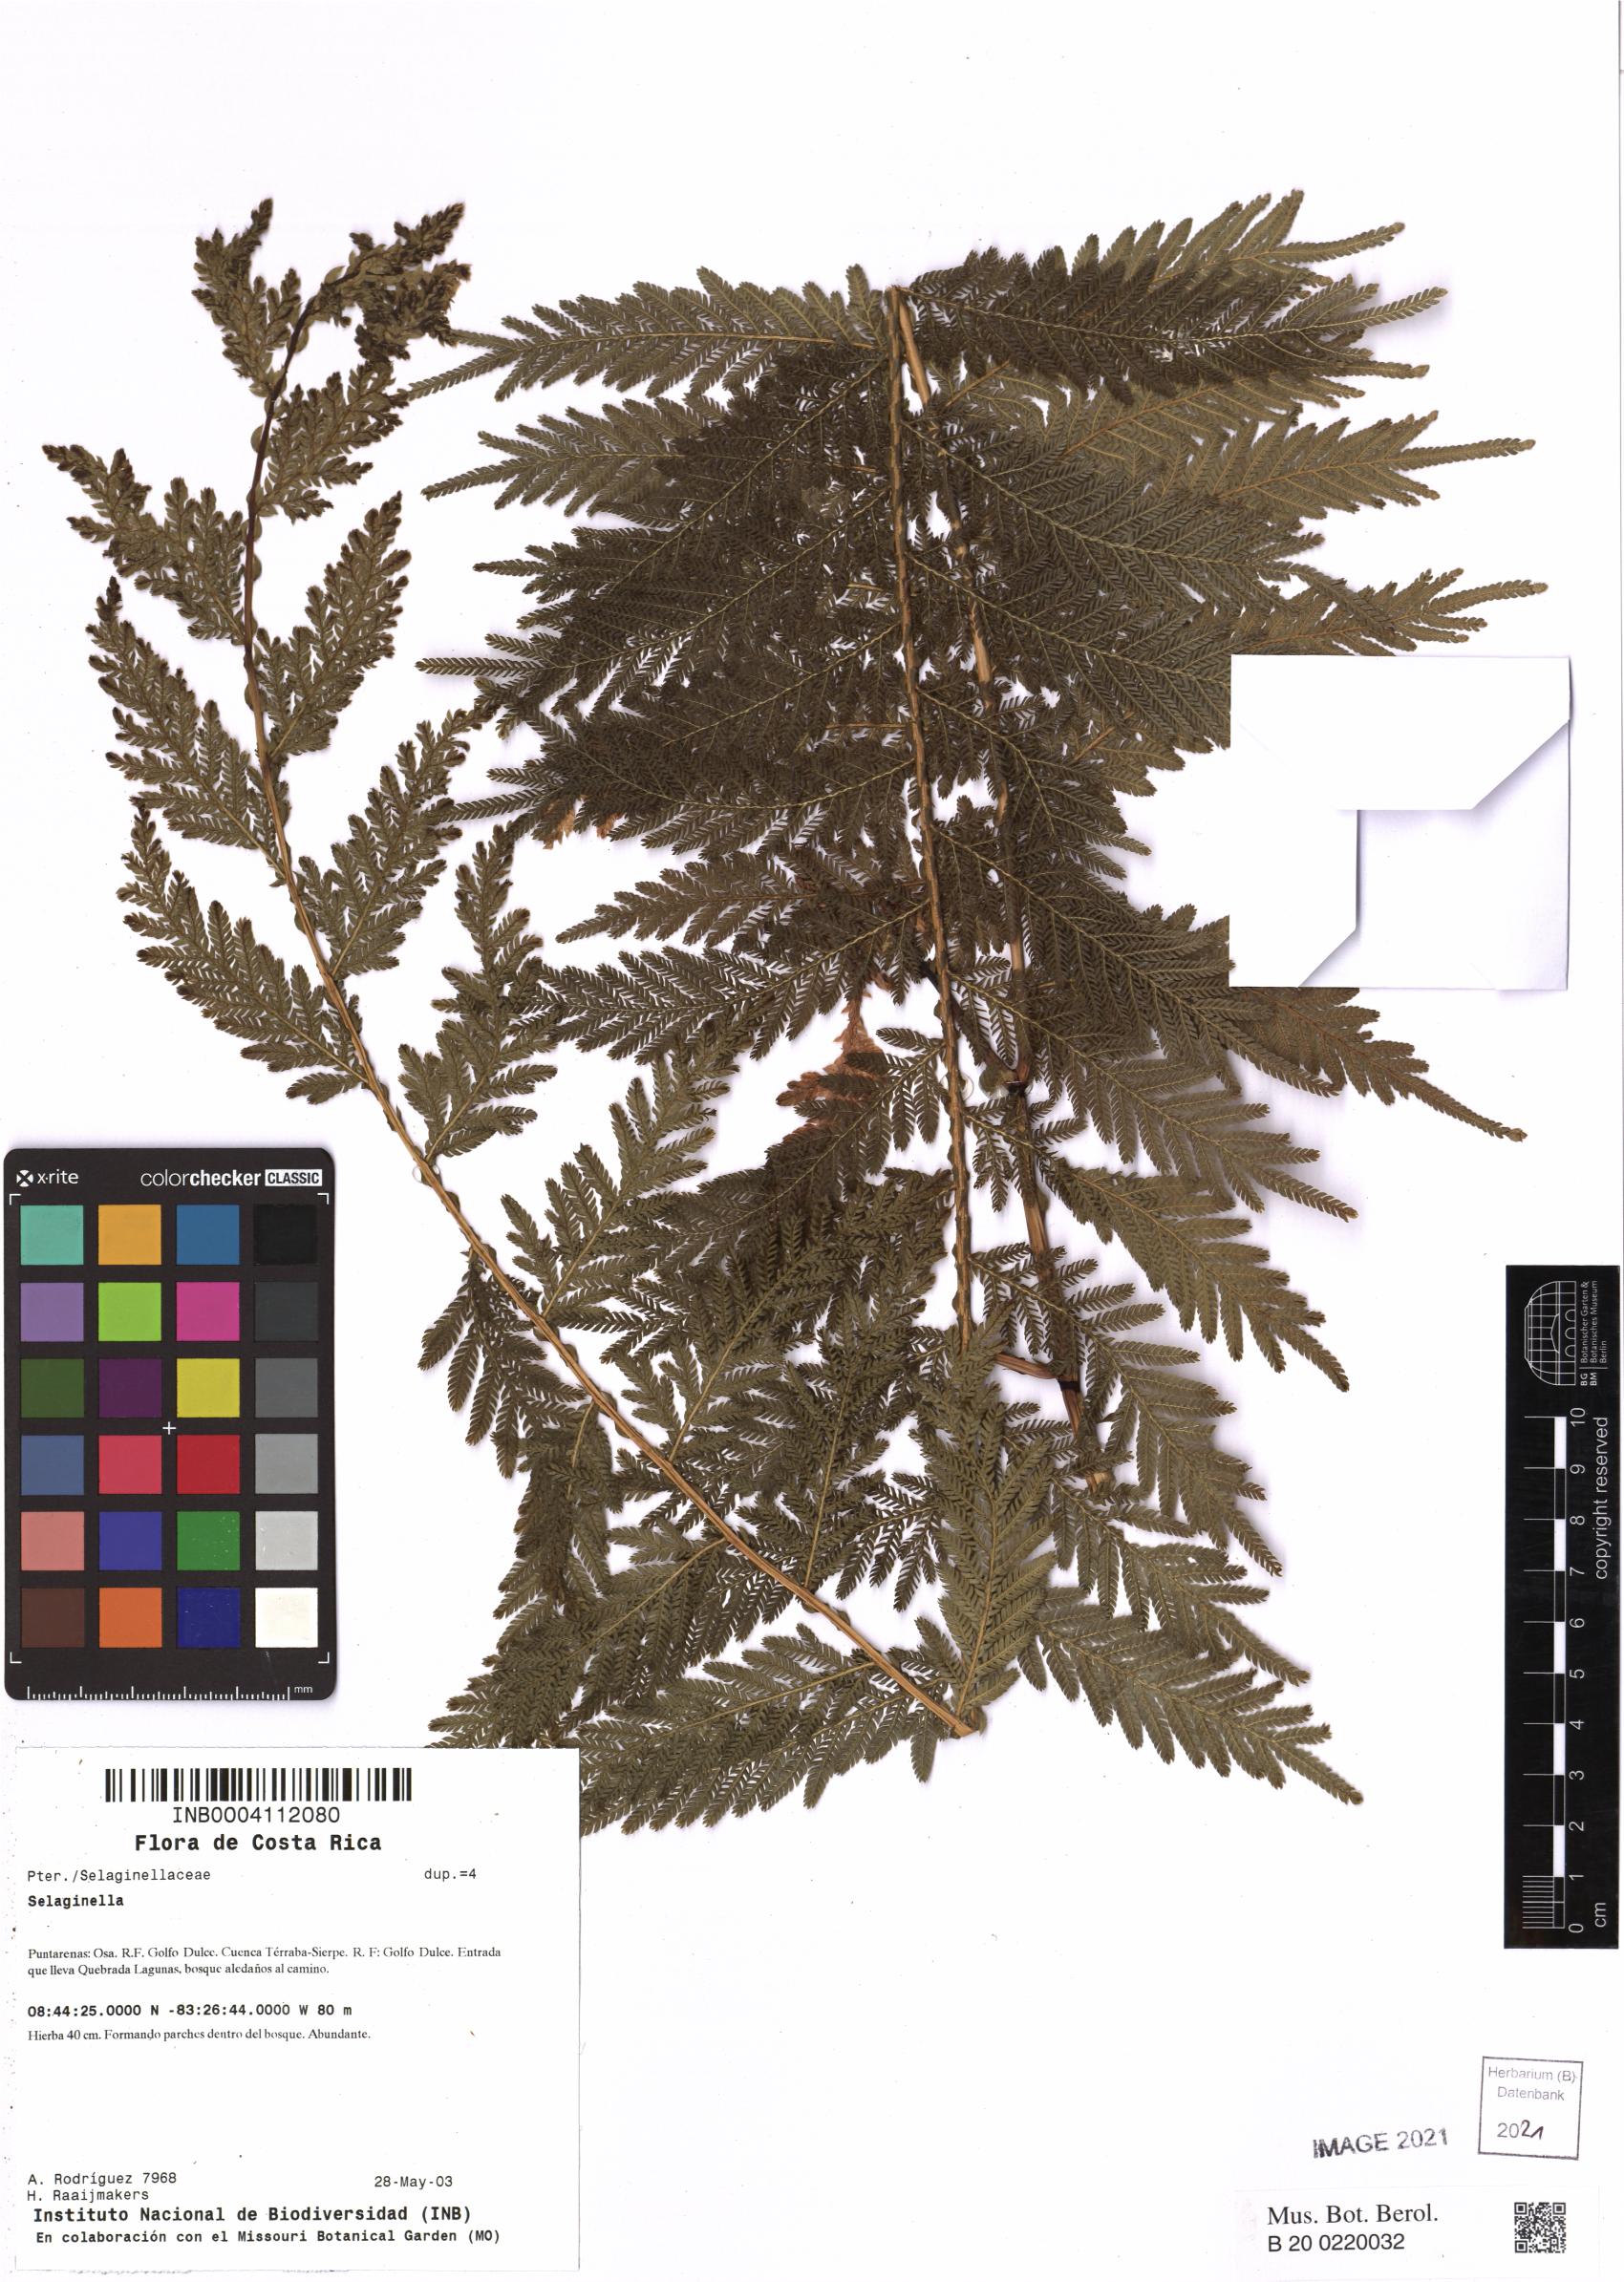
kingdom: Plantae
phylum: Tracheophyta
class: Lycopodiopsida
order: Selaginellales
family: Selaginellaceae
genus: Selaginella
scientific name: Selaginella
